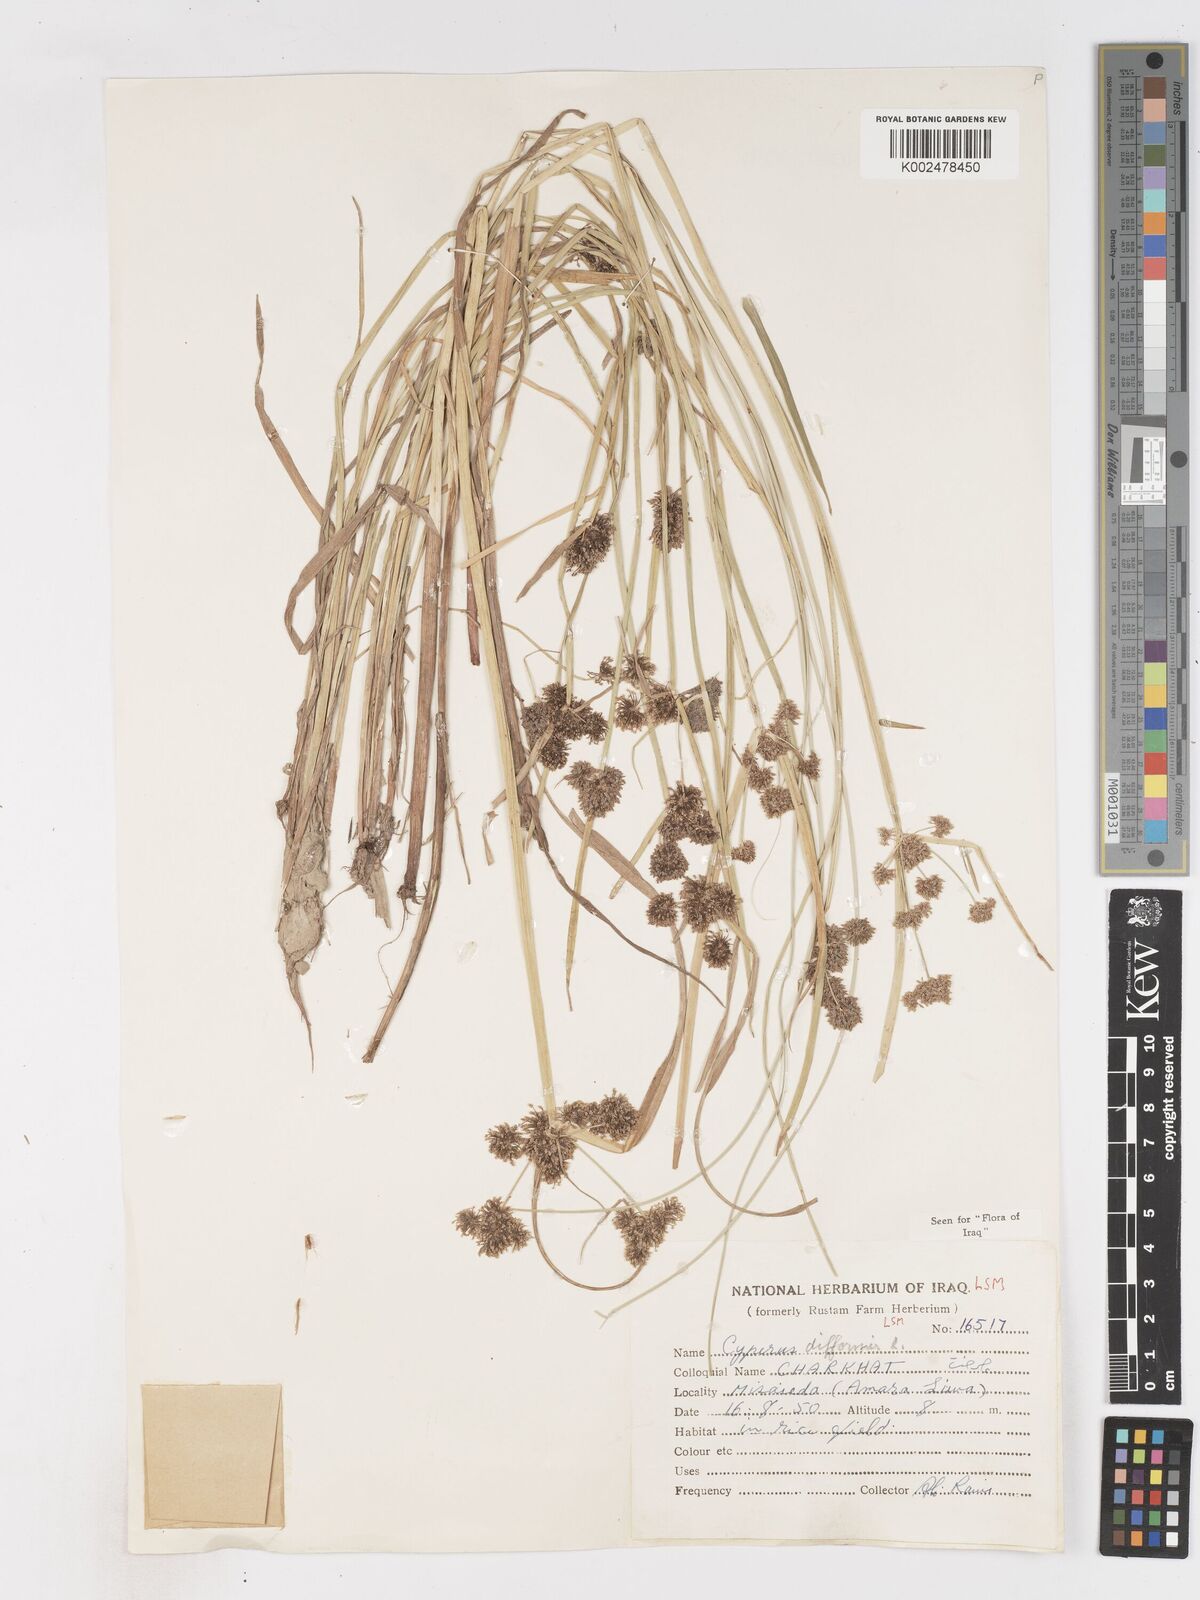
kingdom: Plantae
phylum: Tracheophyta
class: Liliopsida
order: Poales
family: Cyperaceae
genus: Cyperus
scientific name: Cyperus difformis
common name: Variable flatsedge
